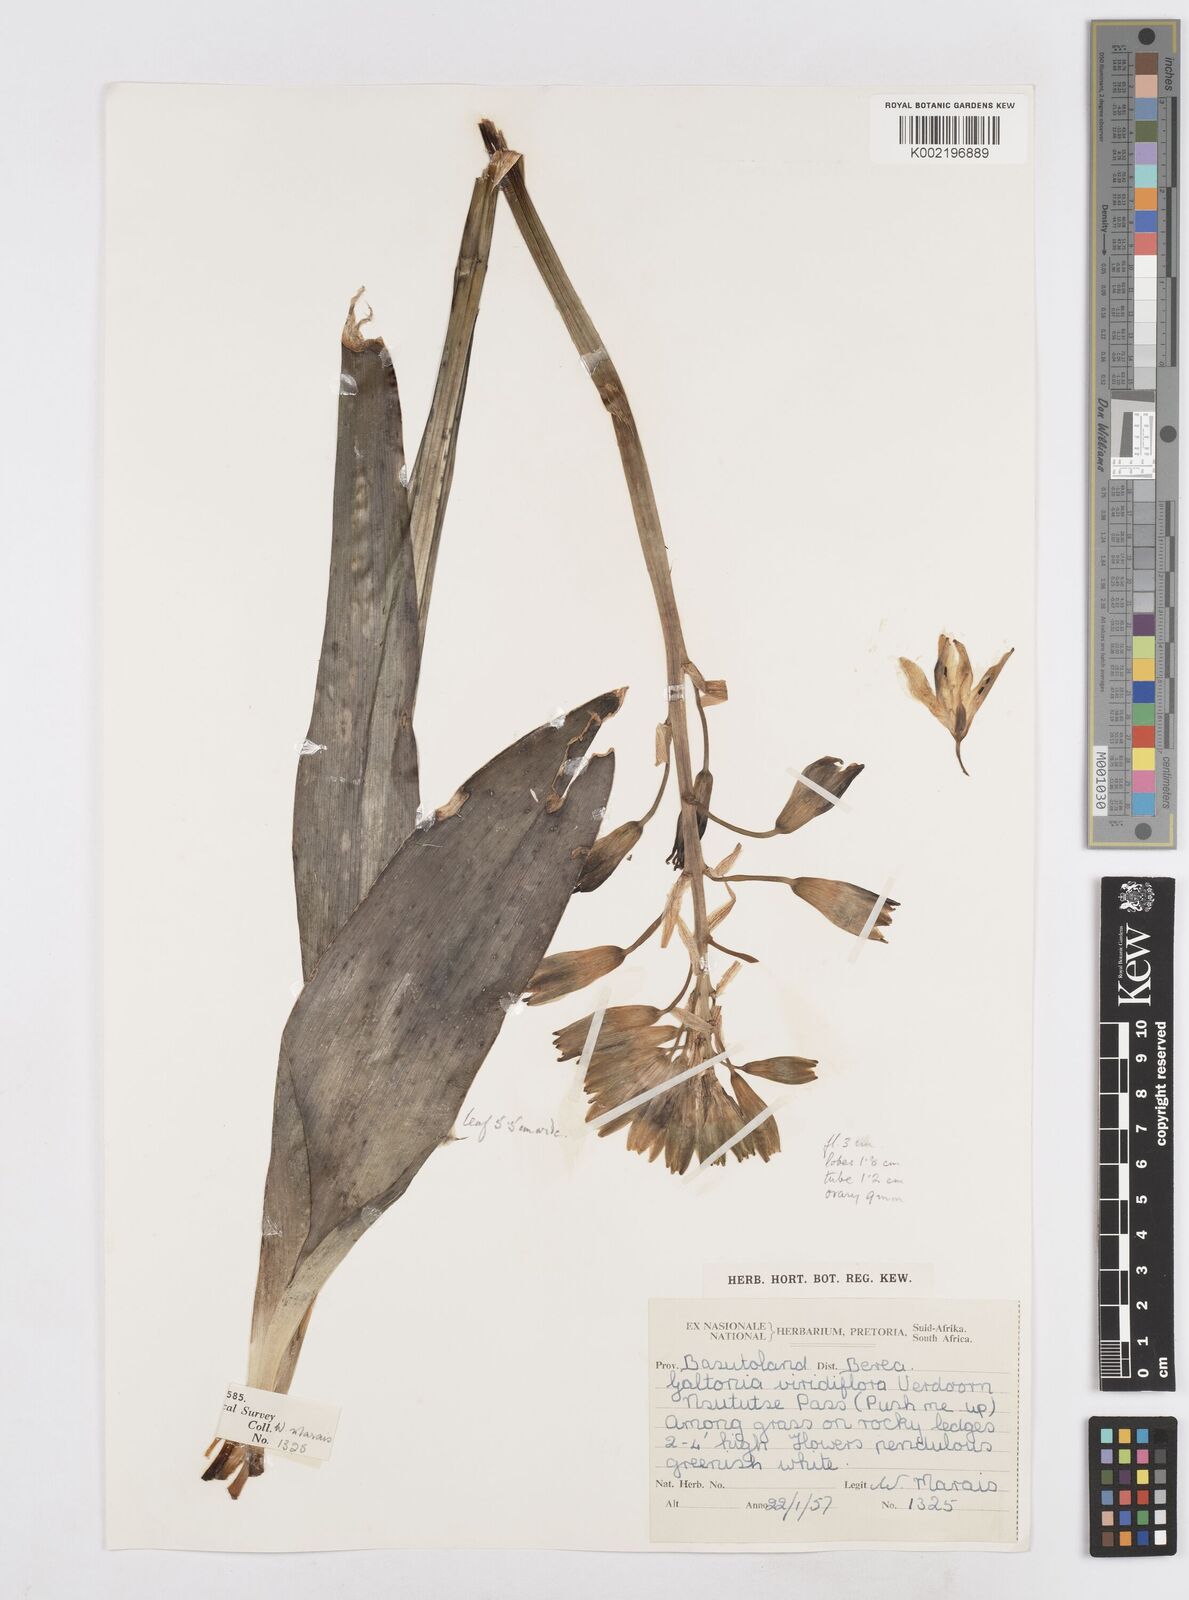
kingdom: Plantae
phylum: Tracheophyta
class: Liliopsida
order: Asparagales
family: Asparagaceae
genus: Ornithogalum
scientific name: Ornithogalum viridiflorum
